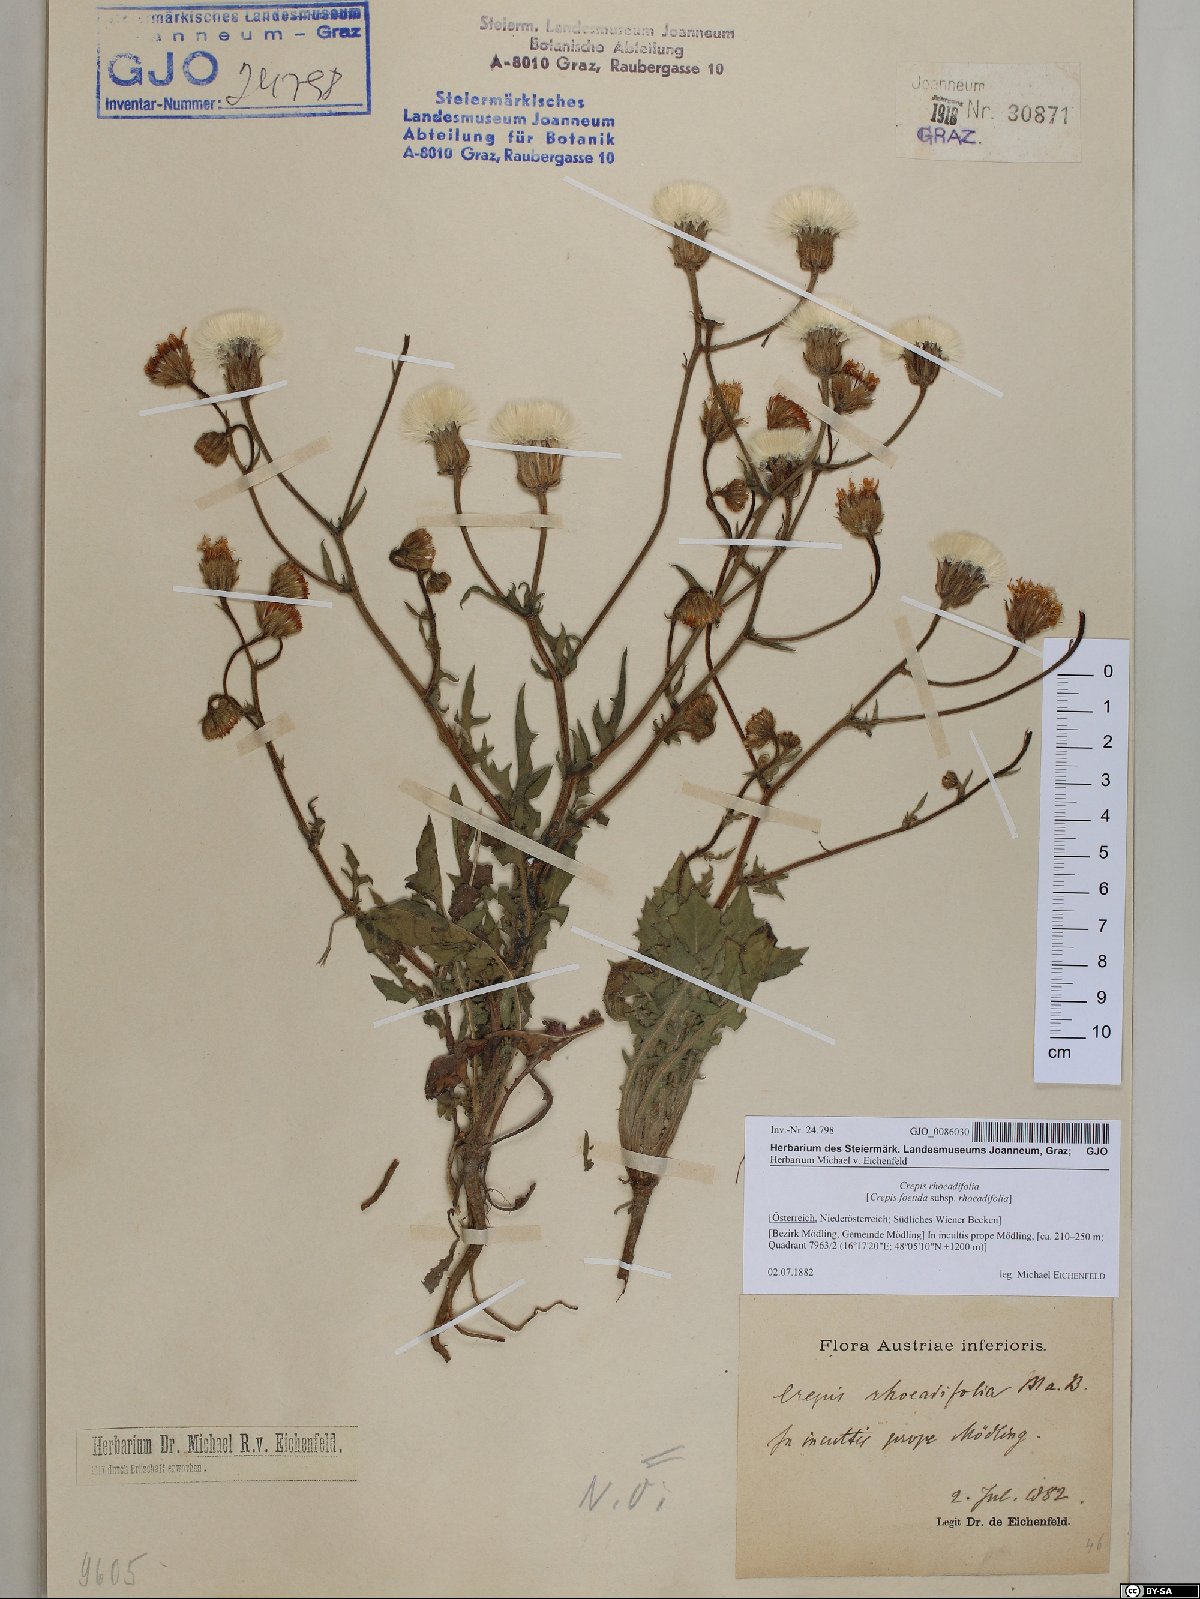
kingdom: Plantae
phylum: Tracheophyta
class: Magnoliopsida
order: Asterales
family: Asteraceae
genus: Crepis
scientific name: Crepis foetida
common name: Stinking hawk's-beard
